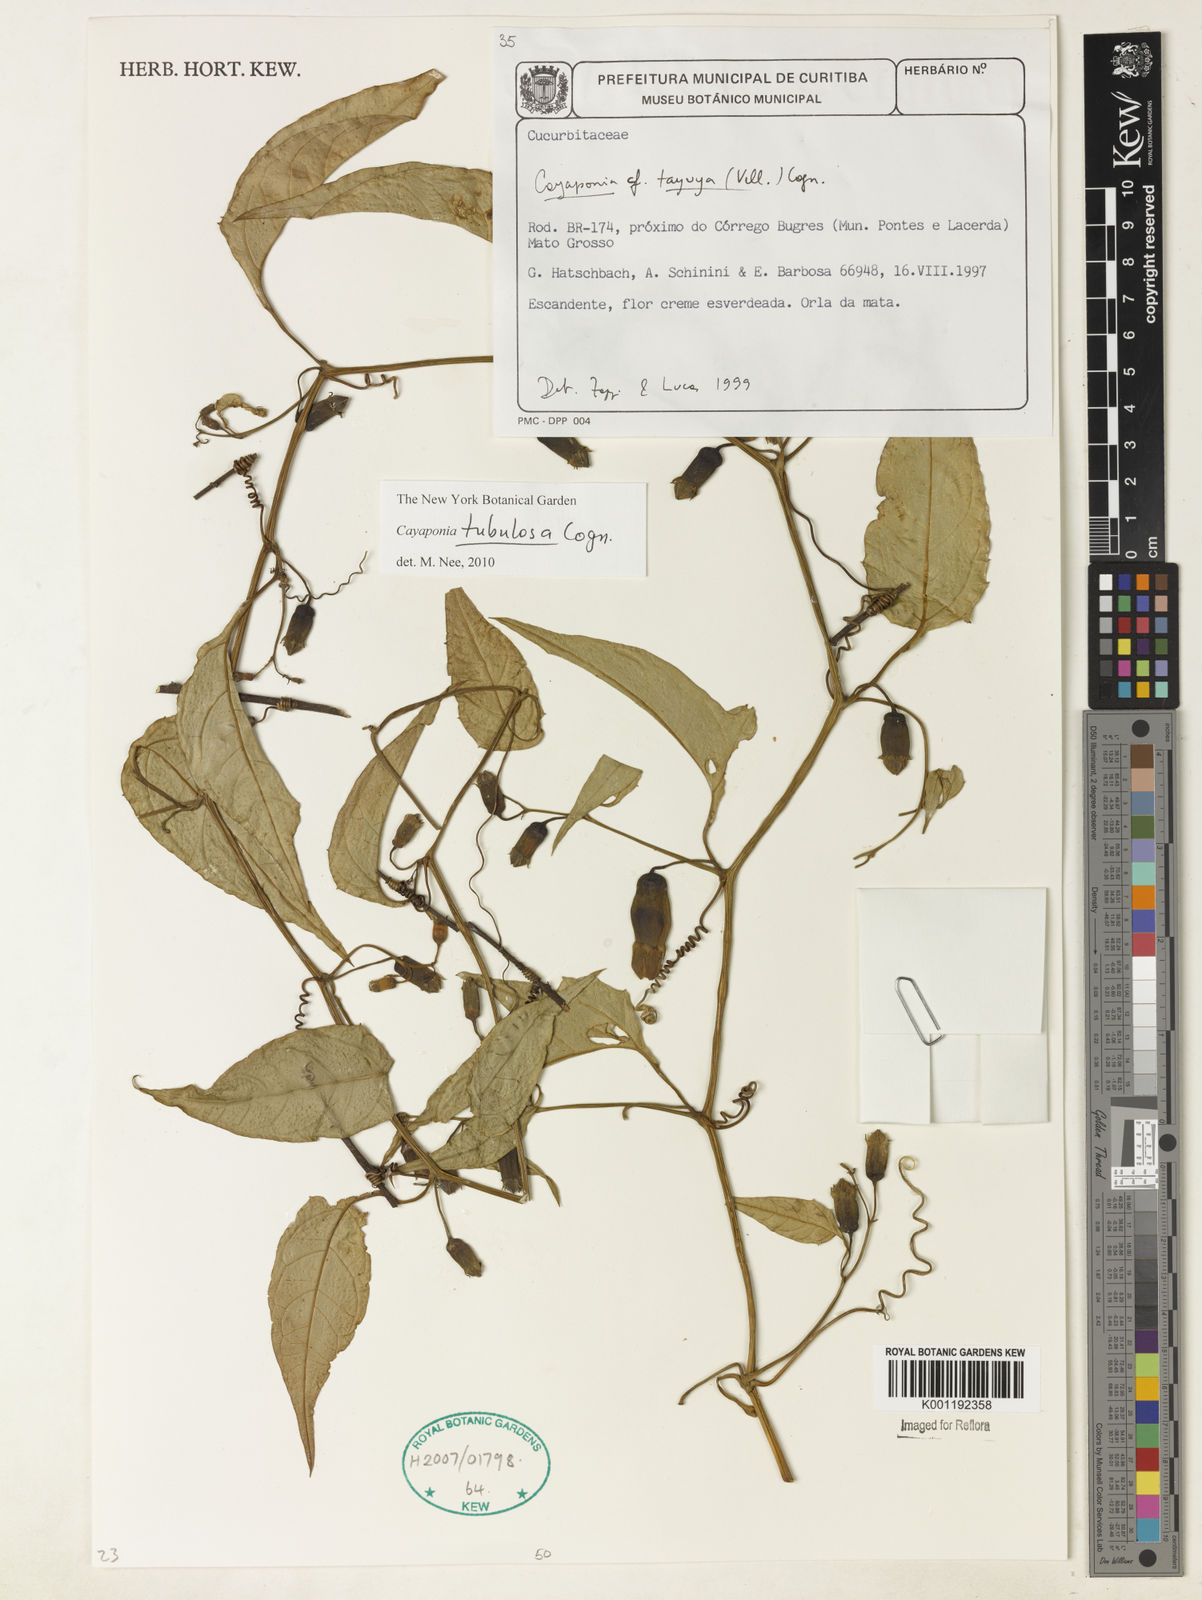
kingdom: Plantae
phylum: Tracheophyta
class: Magnoliopsida
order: Cucurbitales
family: Cucurbitaceae
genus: Cayaponia
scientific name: Cayaponia tubulosa
